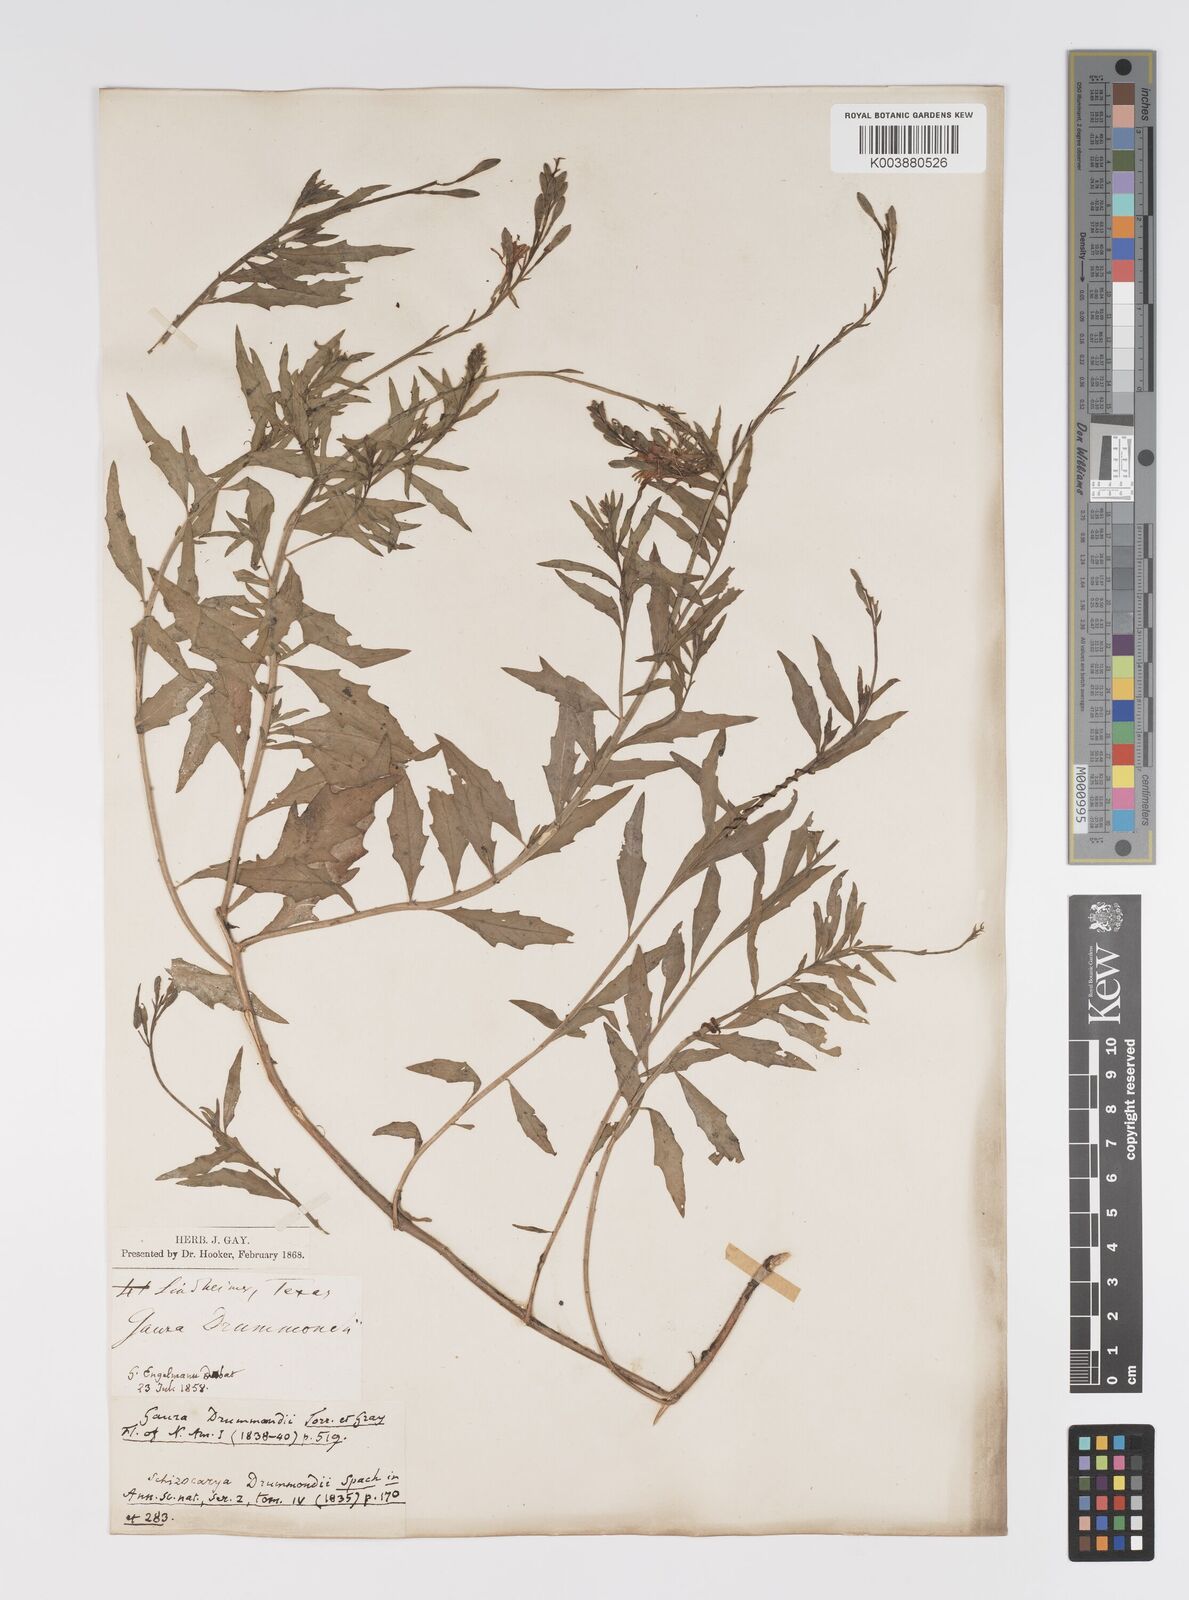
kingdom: Plantae
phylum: Tracheophyta
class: Magnoliopsida
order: Myrtales
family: Onagraceae
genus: Oenothera
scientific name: Oenothera hispida
